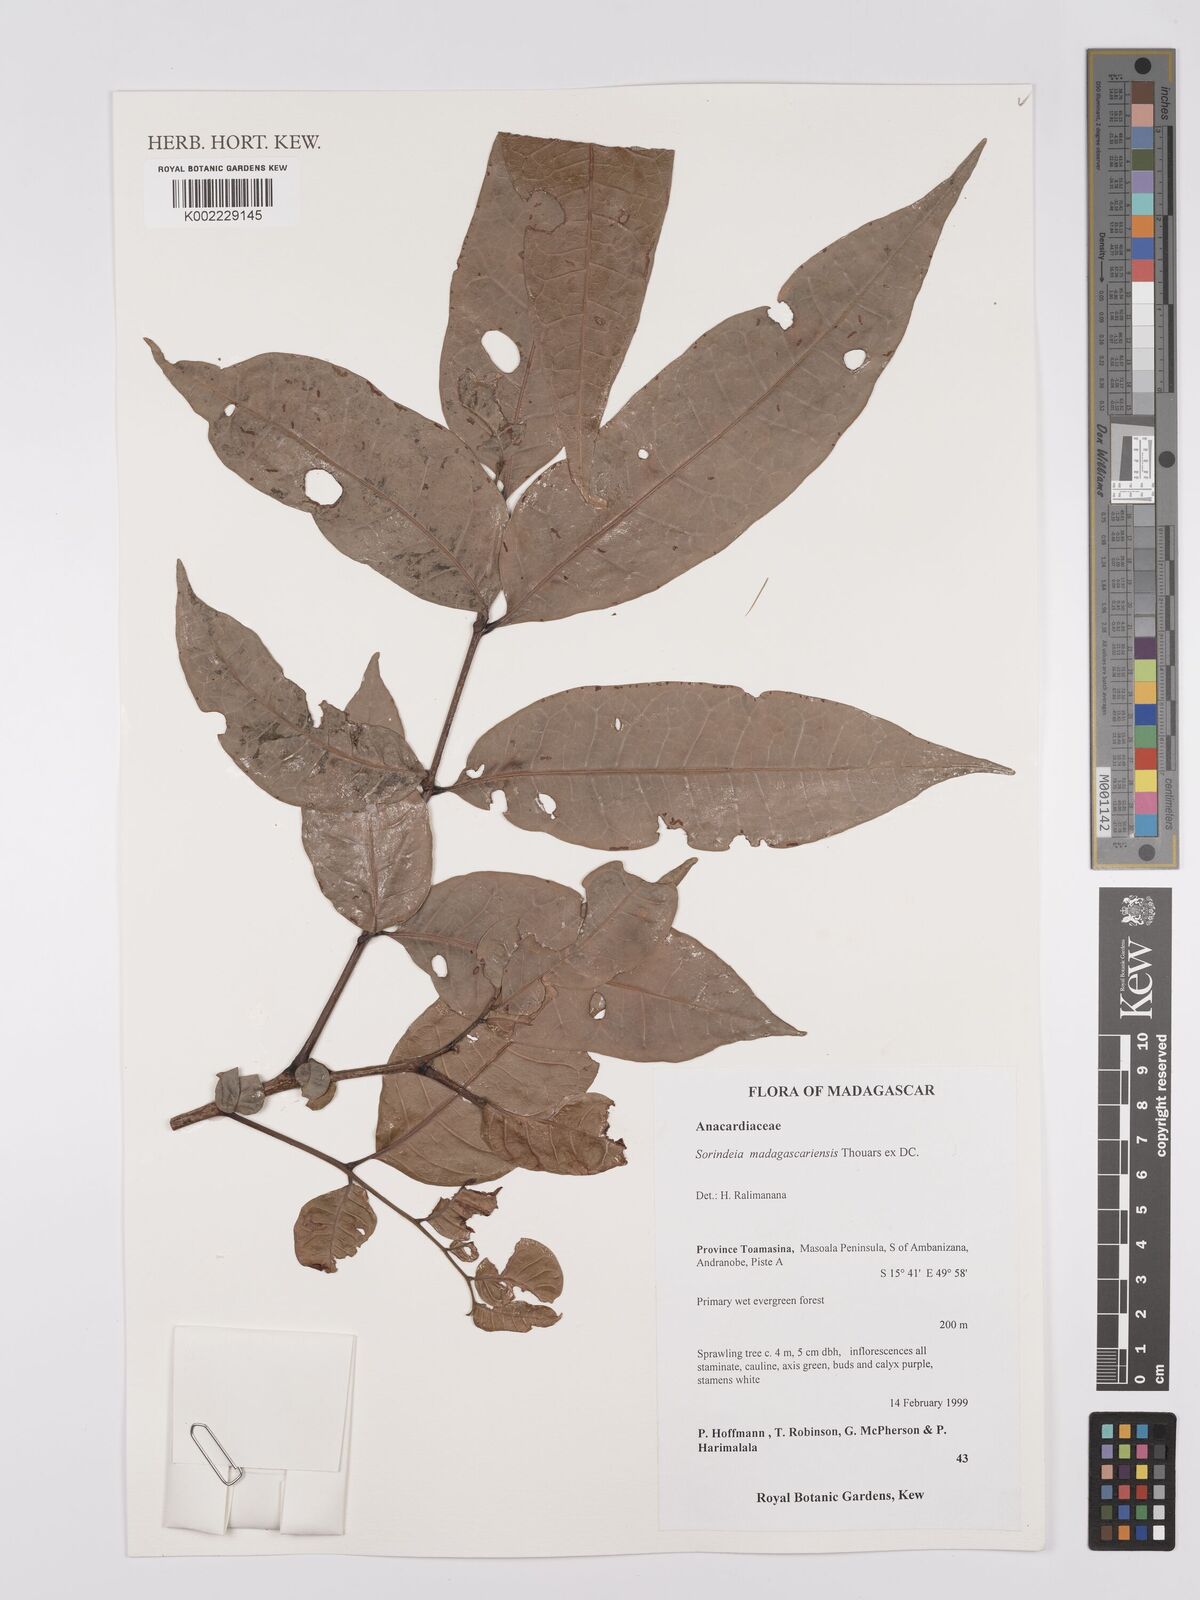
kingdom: Plantae
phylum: Tracheophyta
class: Magnoliopsida
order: Sapindales
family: Anacardiaceae
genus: Sorindeia
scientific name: Sorindeia madagascariensis
